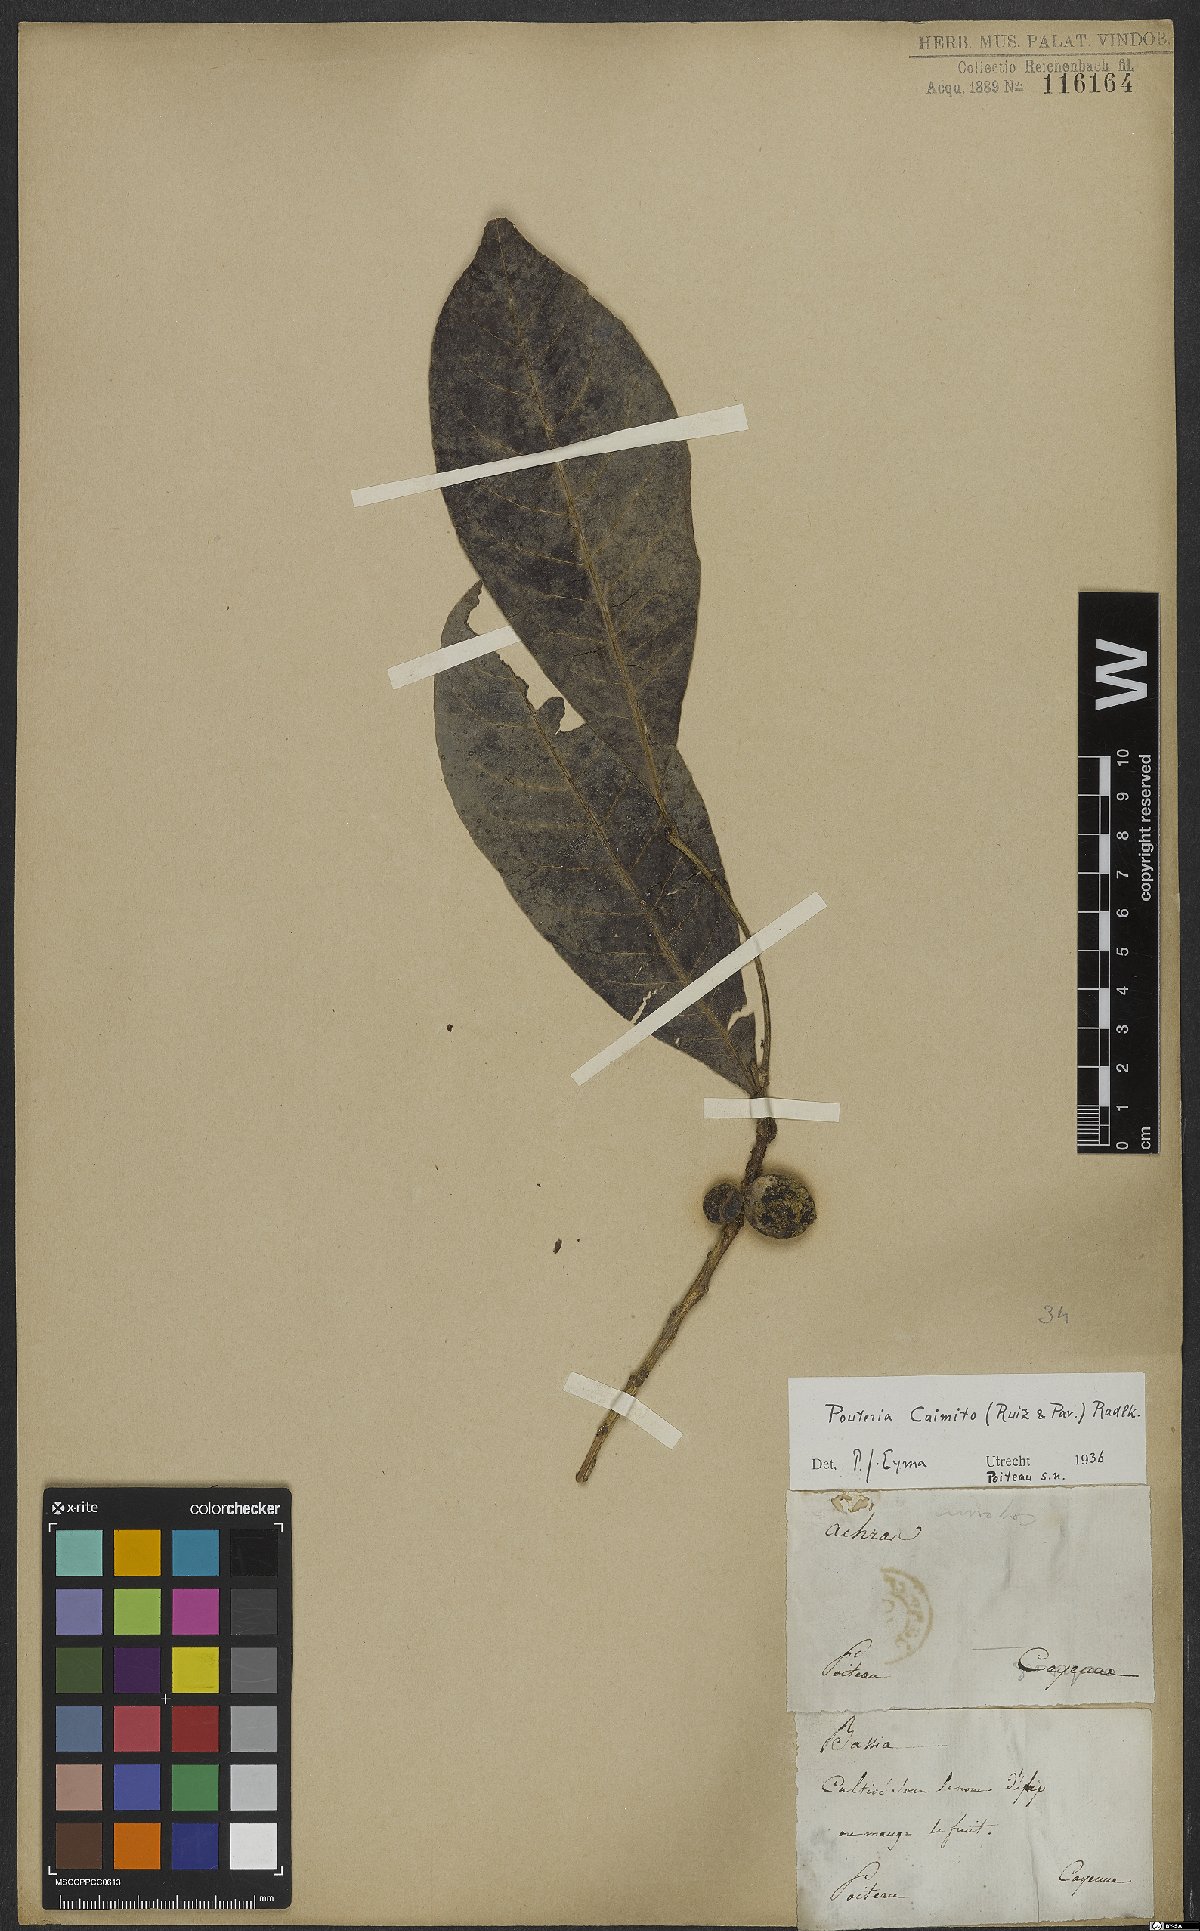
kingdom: Plantae
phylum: Tracheophyta
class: Magnoliopsida
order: Ericales
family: Sapotaceae
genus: Pouteria
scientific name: Pouteria caimito
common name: Caimito
